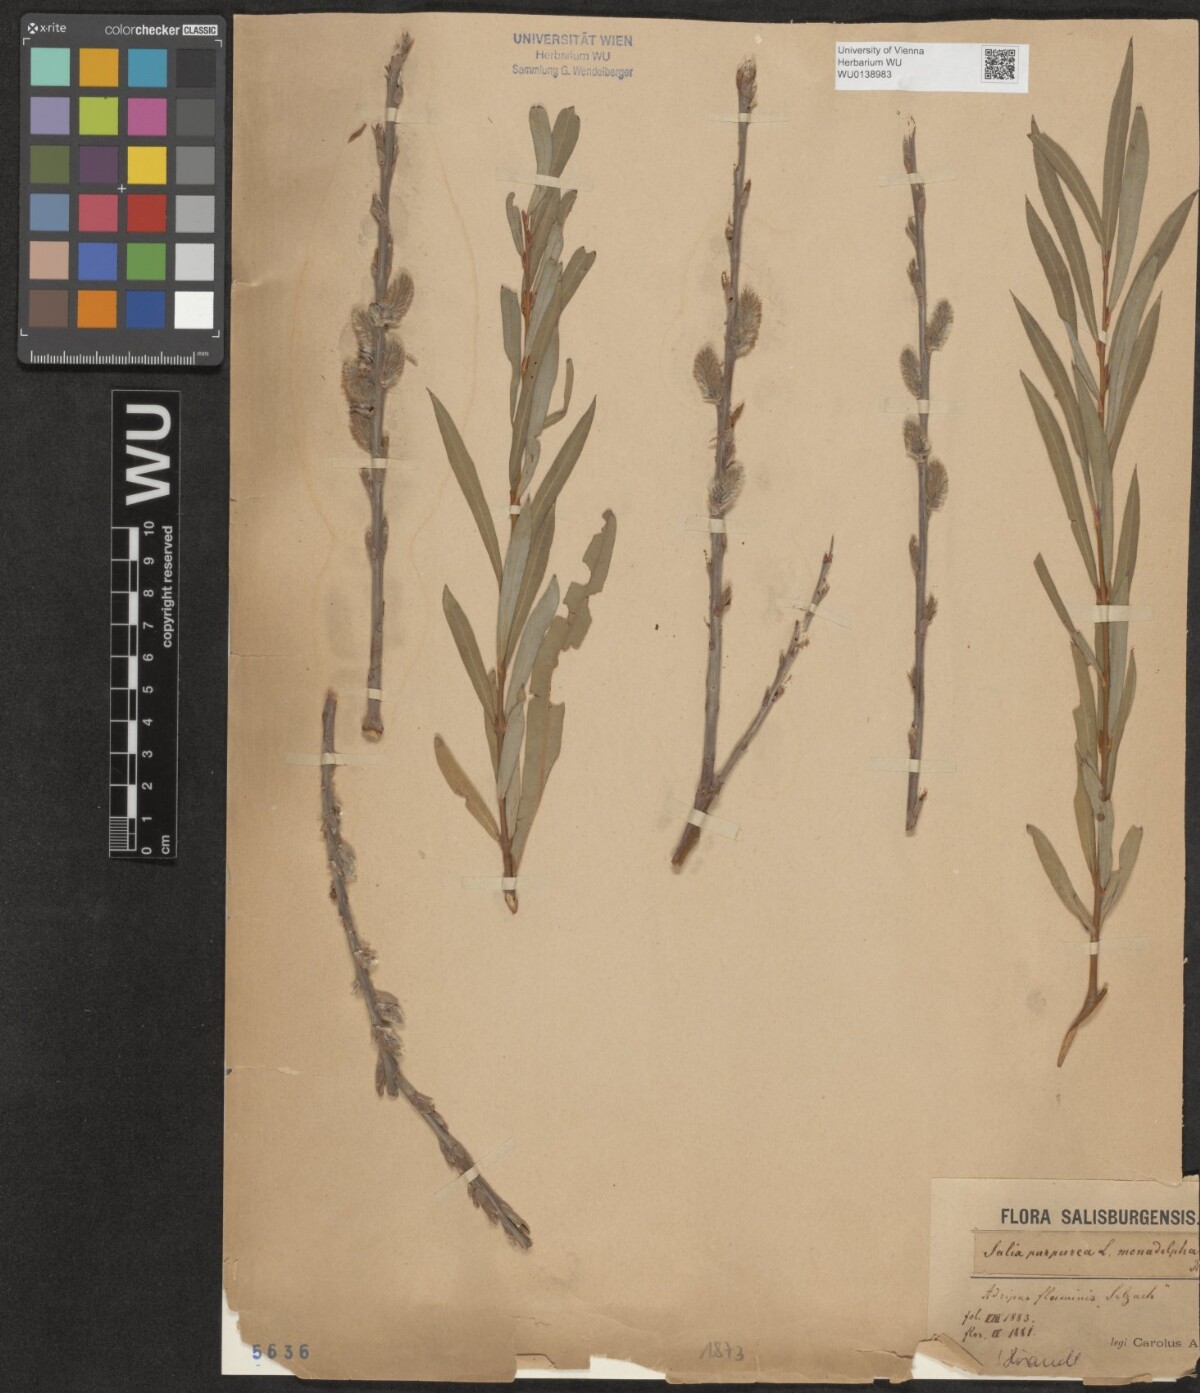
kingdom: Plantae
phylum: Tracheophyta
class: Magnoliopsida
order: Malpighiales
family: Salicaceae
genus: Salix
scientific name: Salix purpurea
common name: Purple willow
